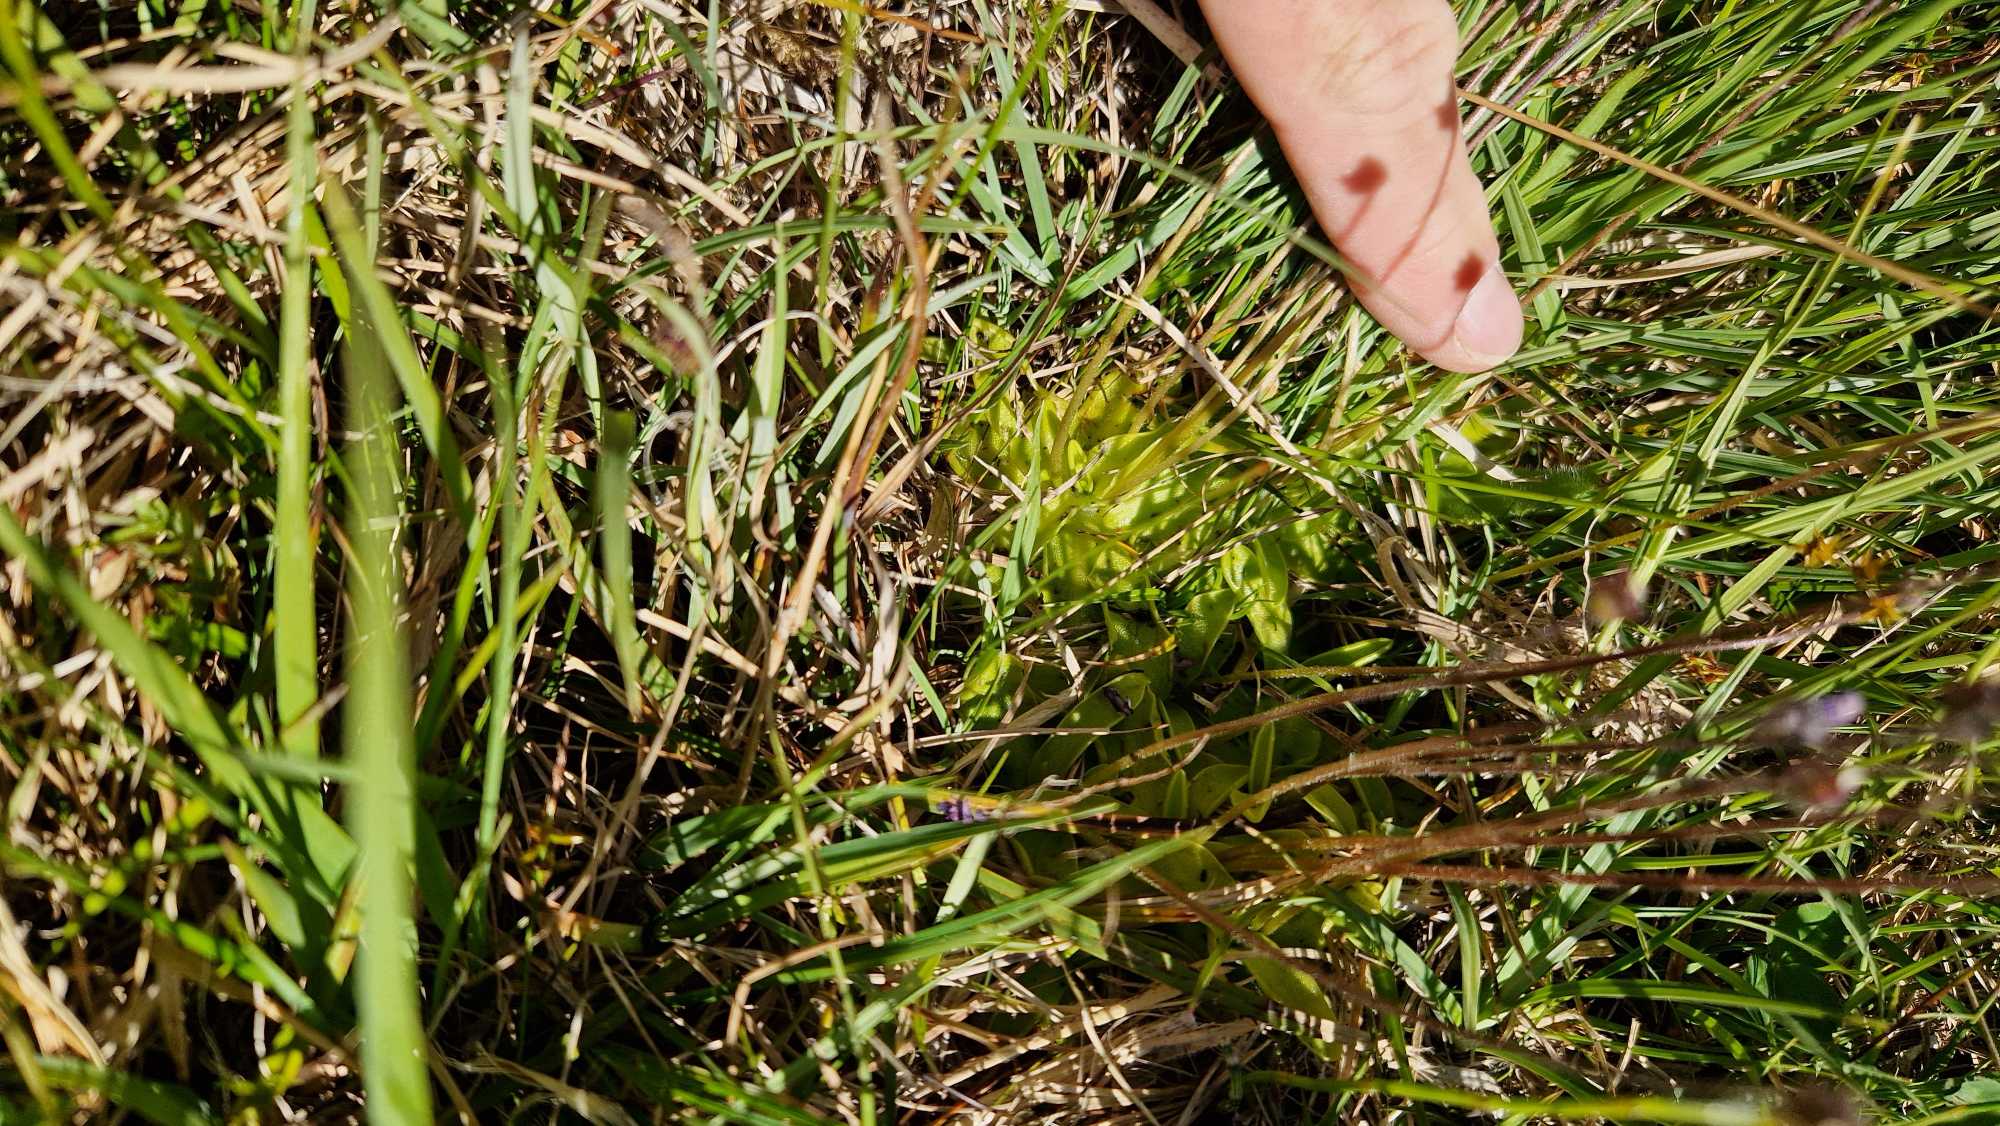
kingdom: Plantae
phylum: Tracheophyta
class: Magnoliopsida
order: Lamiales
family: Lentibulariaceae
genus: Pinguicula
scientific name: Pinguicula vulgaris
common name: Vibefedt
